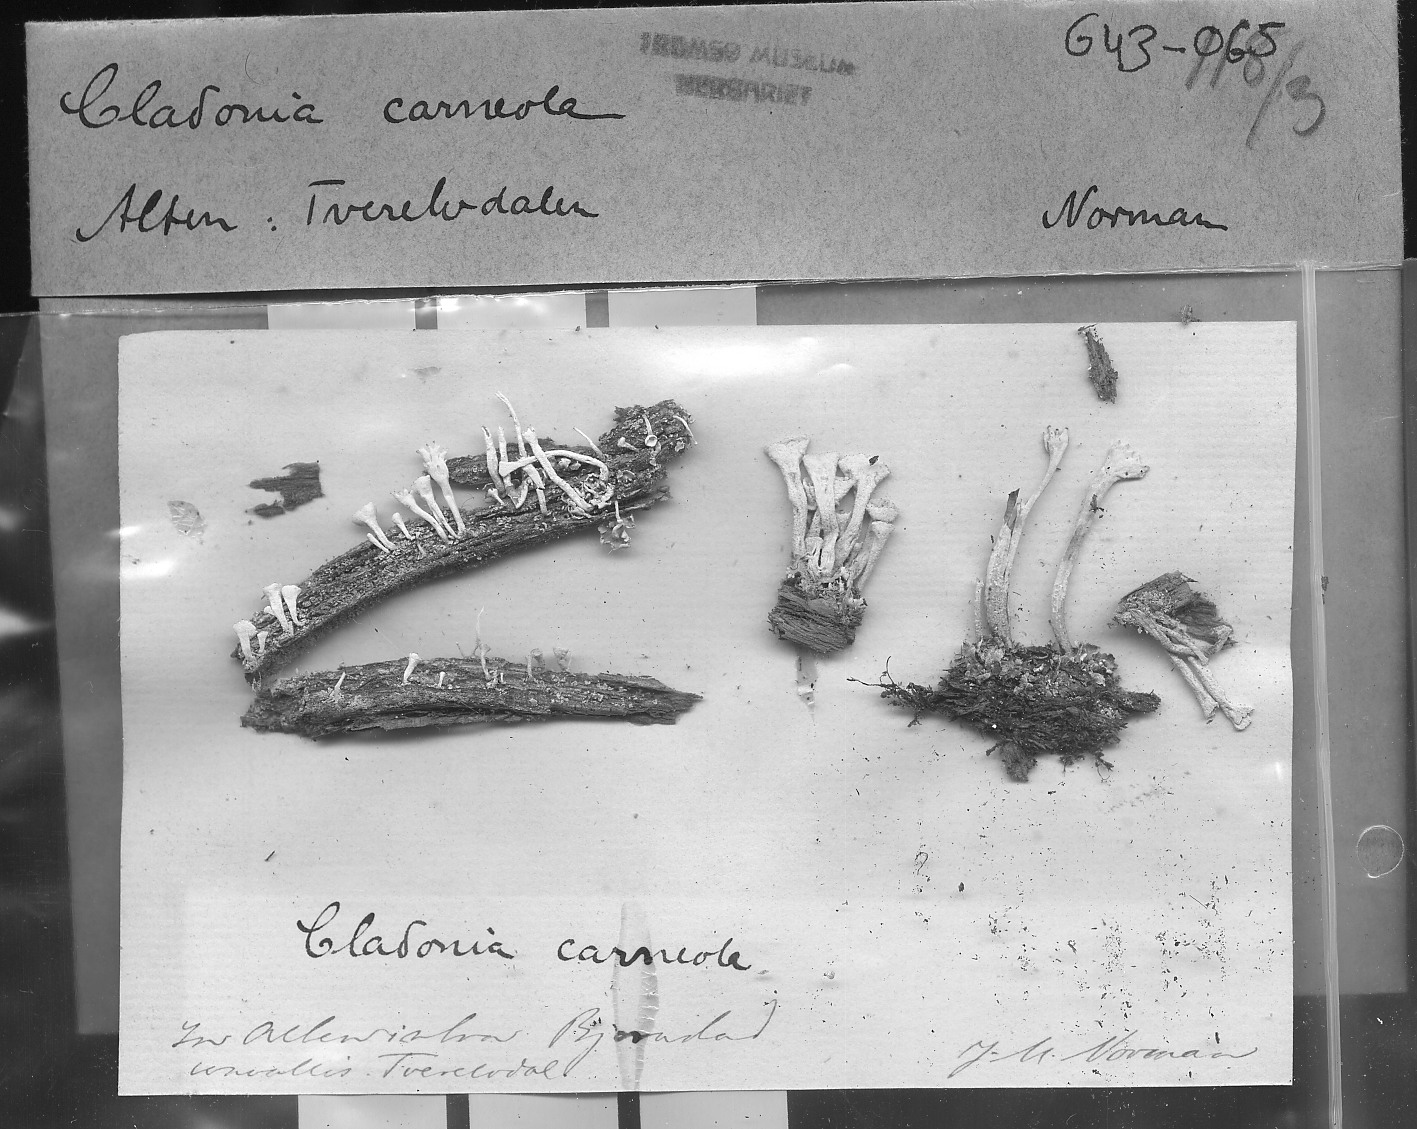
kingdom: Fungi
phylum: Ascomycota
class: Lecanoromycetes
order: Lecanorales
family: Cladoniaceae
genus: Cladonia
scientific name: Cladonia carneola
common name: Crowned pixie-cup
